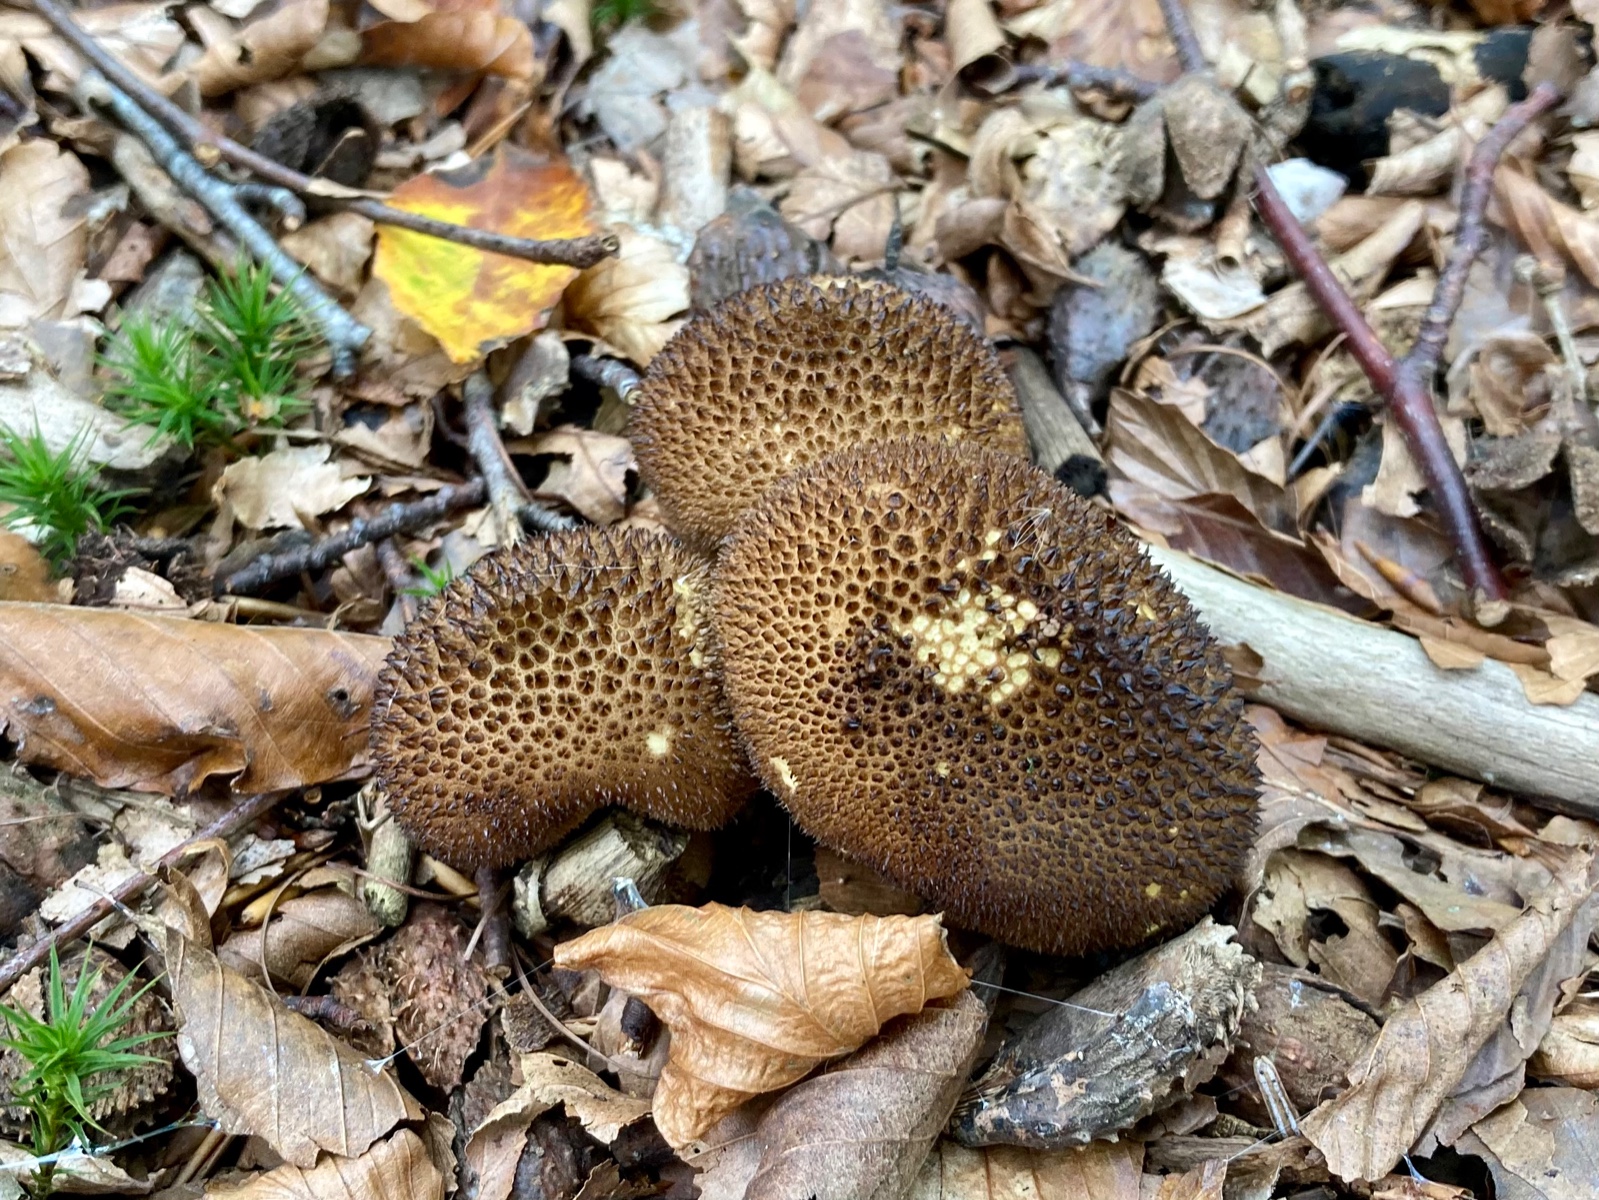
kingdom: Fungi
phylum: Basidiomycota
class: Agaricomycetes
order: Agaricales
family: Lycoperdaceae
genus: Lycoperdon
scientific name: Lycoperdon nigrescens
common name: sortagtig støvbold
